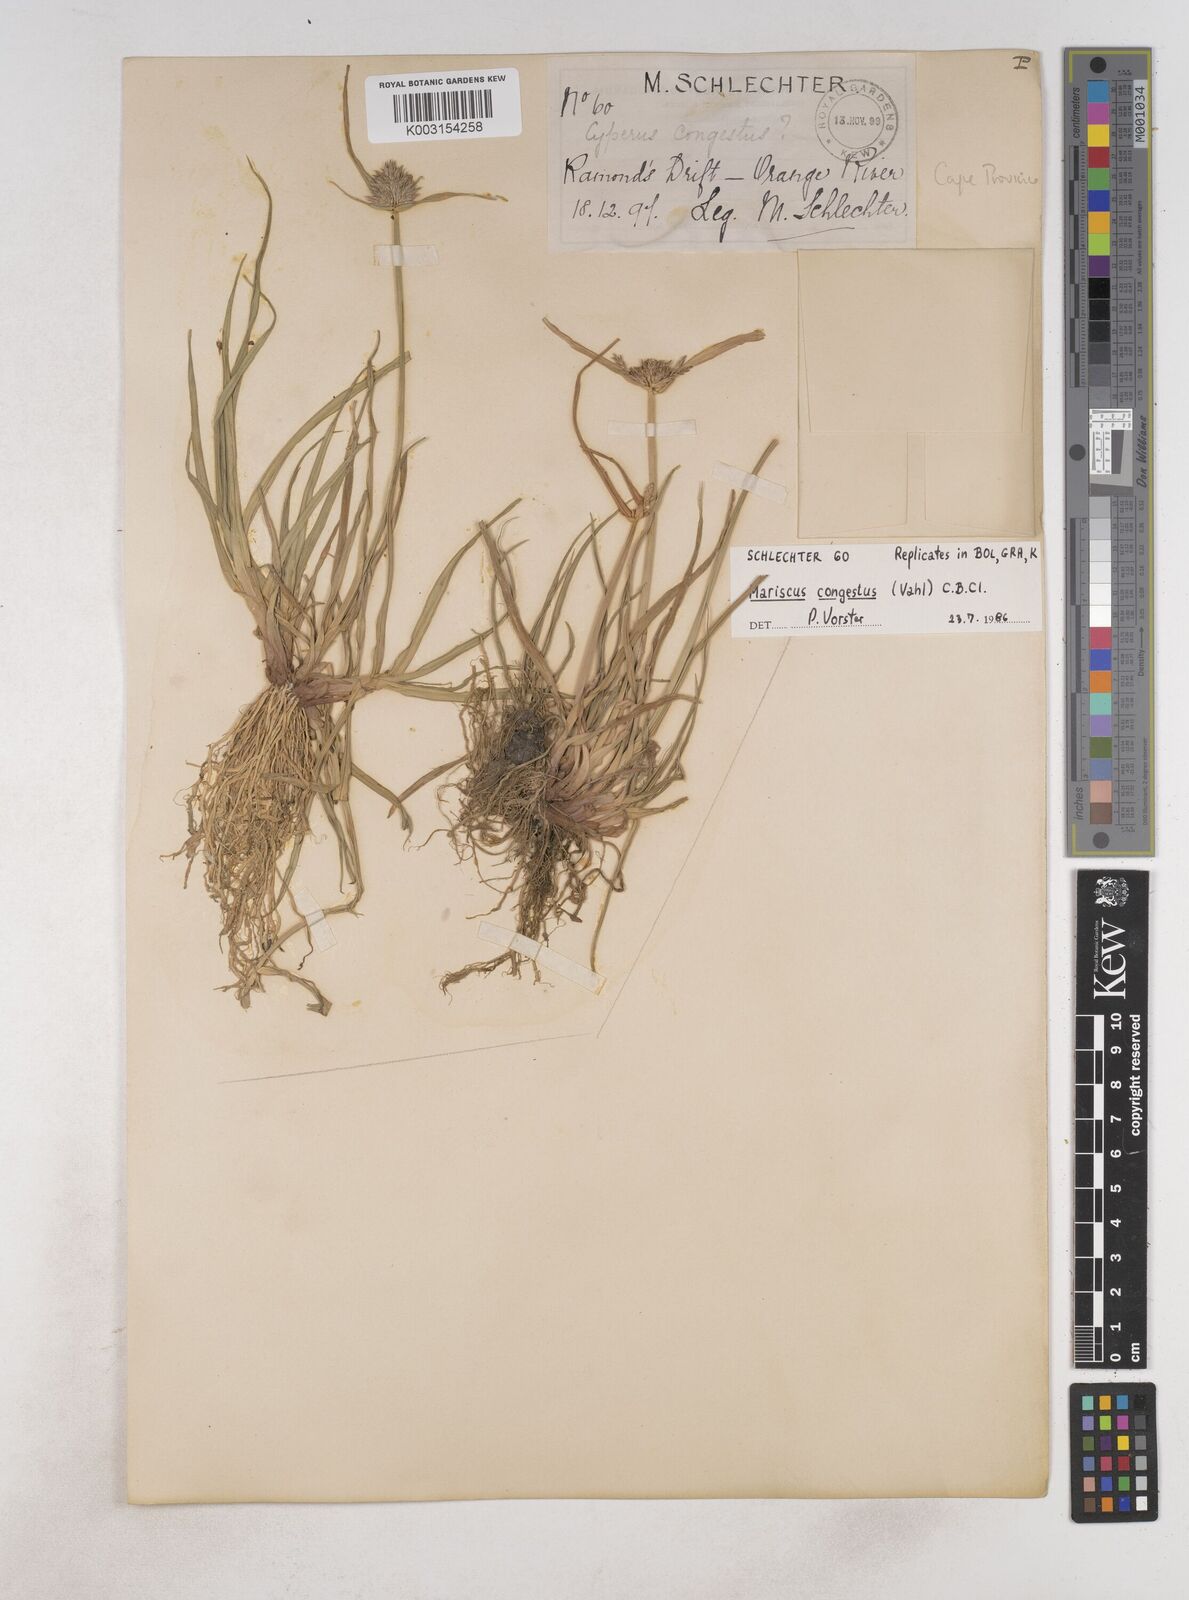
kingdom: Plantae
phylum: Tracheophyta
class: Liliopsida
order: Poales
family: Cyperaceae
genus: Cyperus
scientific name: Cyperus congestus
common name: Dense flat sedge
